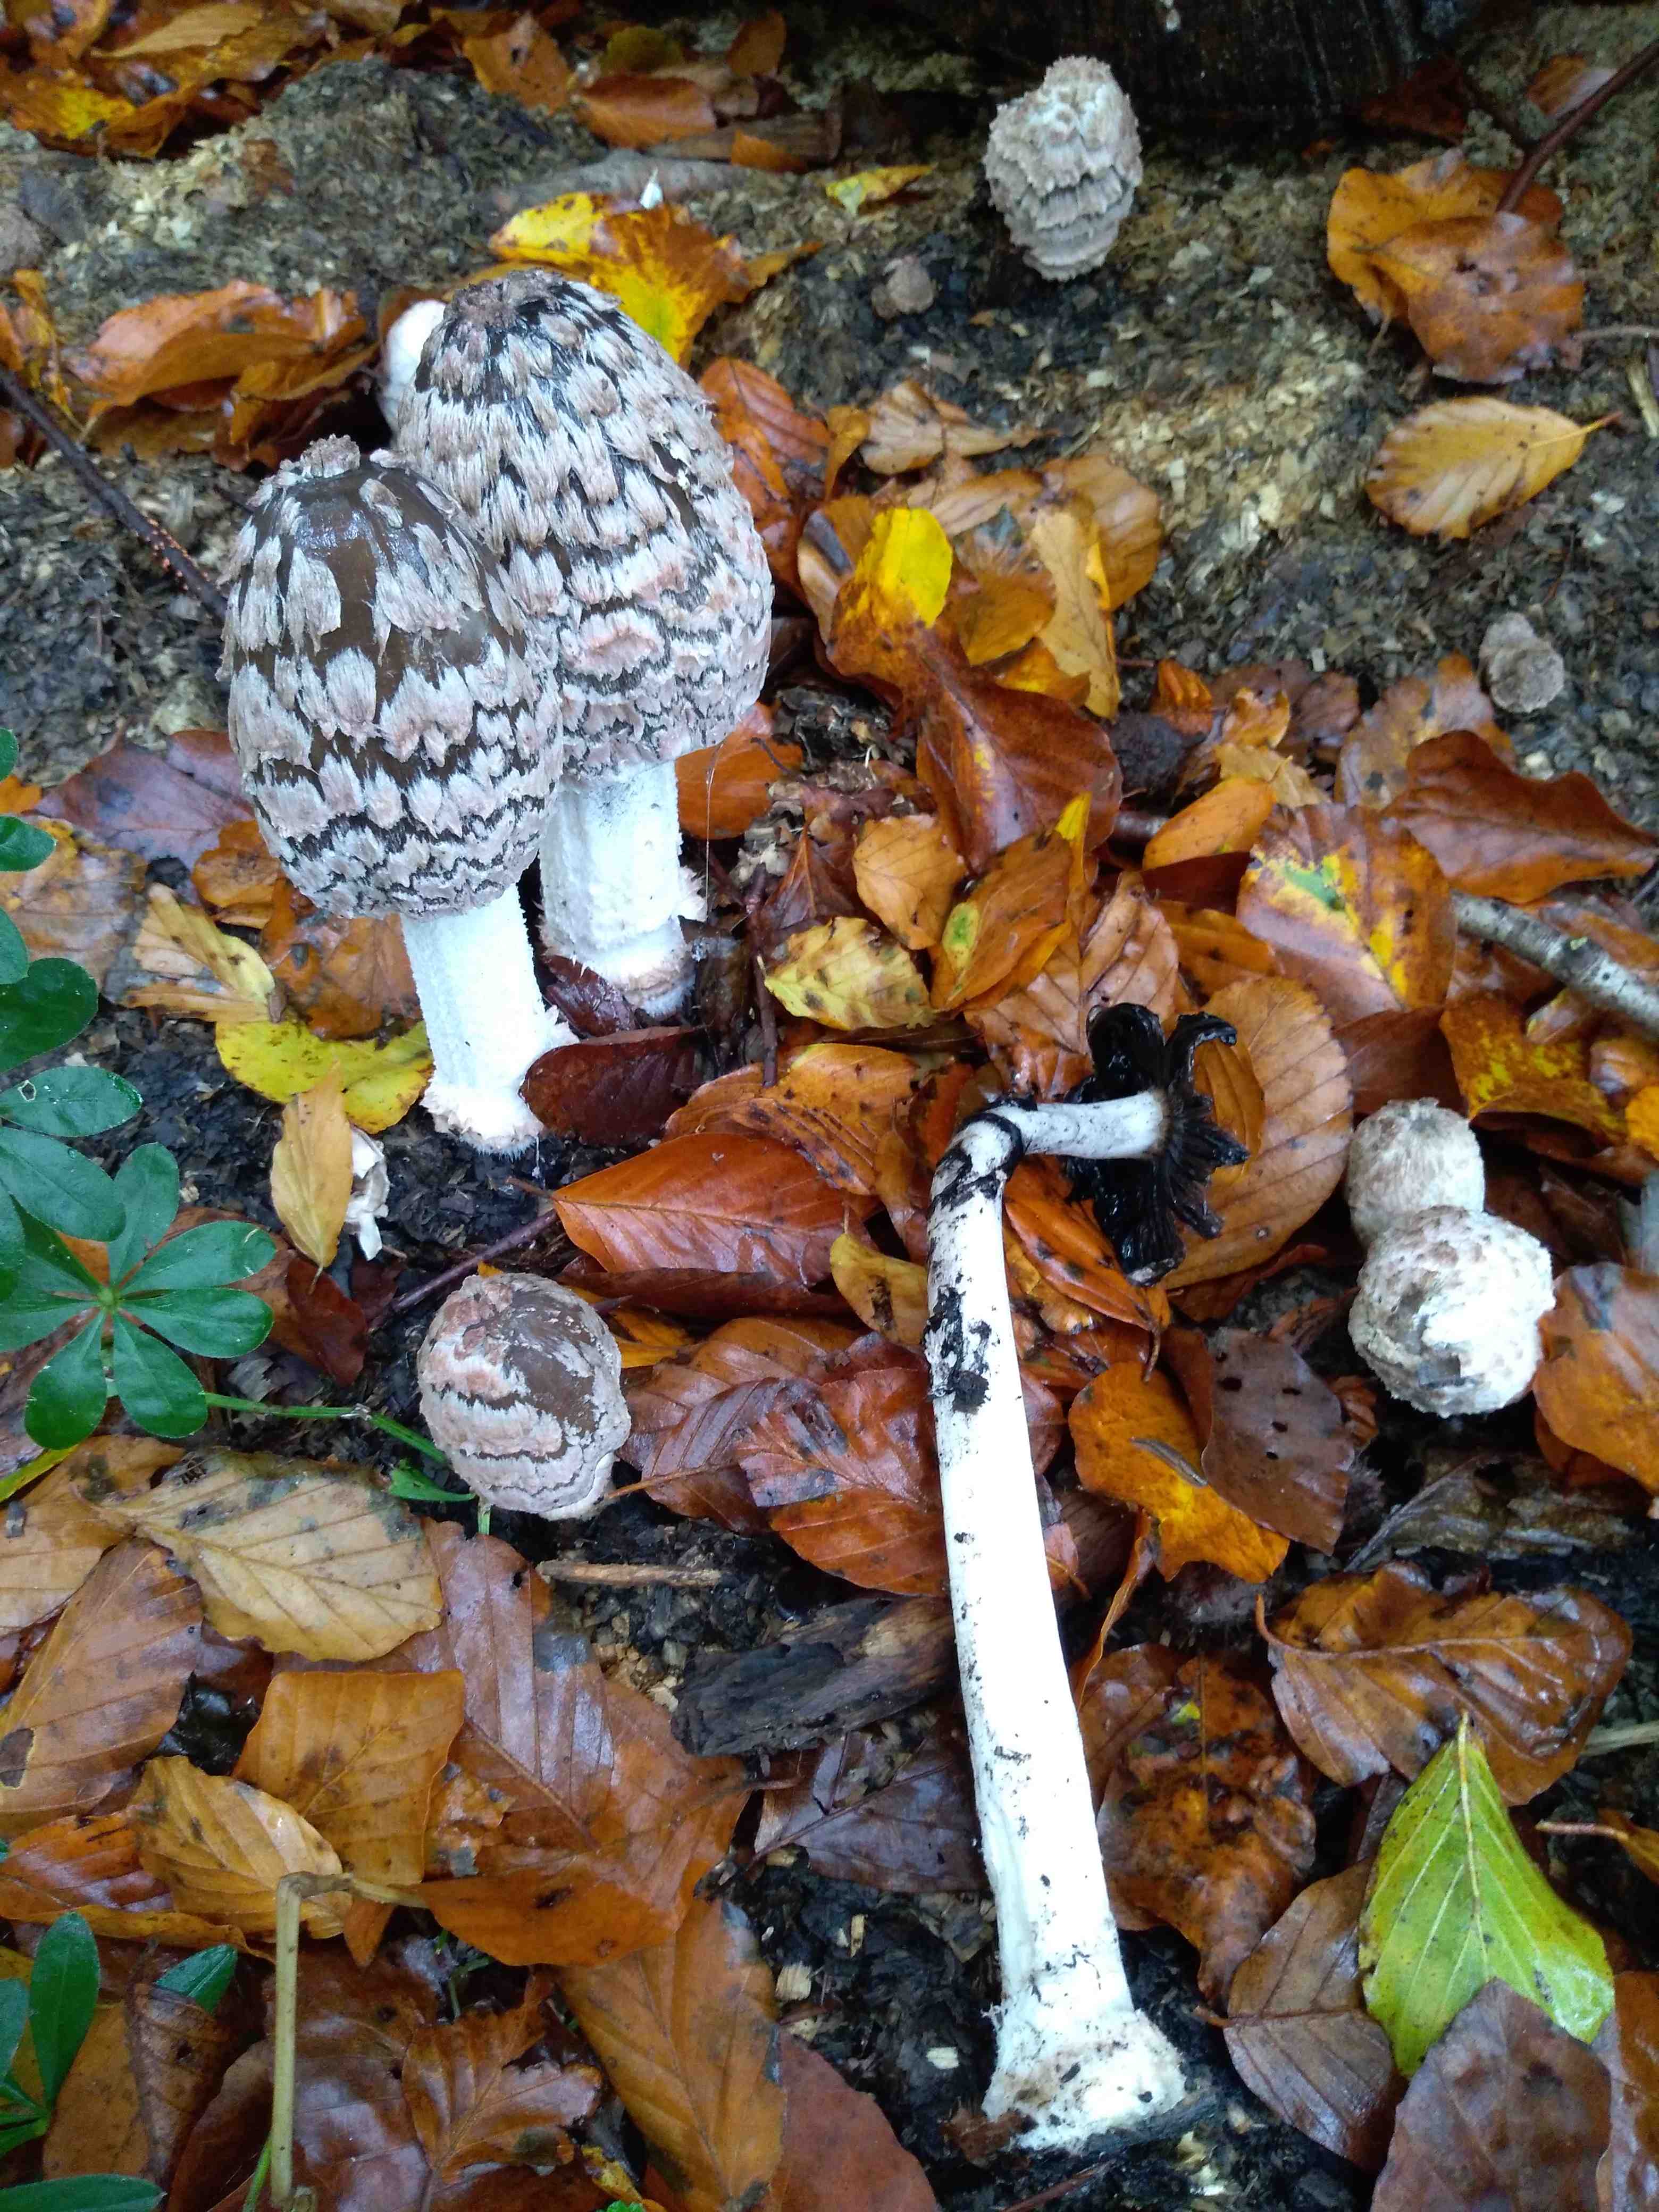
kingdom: Fungi
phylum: Basidiomycota
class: Agaricomycetes
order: Agaricales
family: Psathyrellaceae
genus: Coprinopsis
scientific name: Coprinopsis picacea
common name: skade-blækhat
